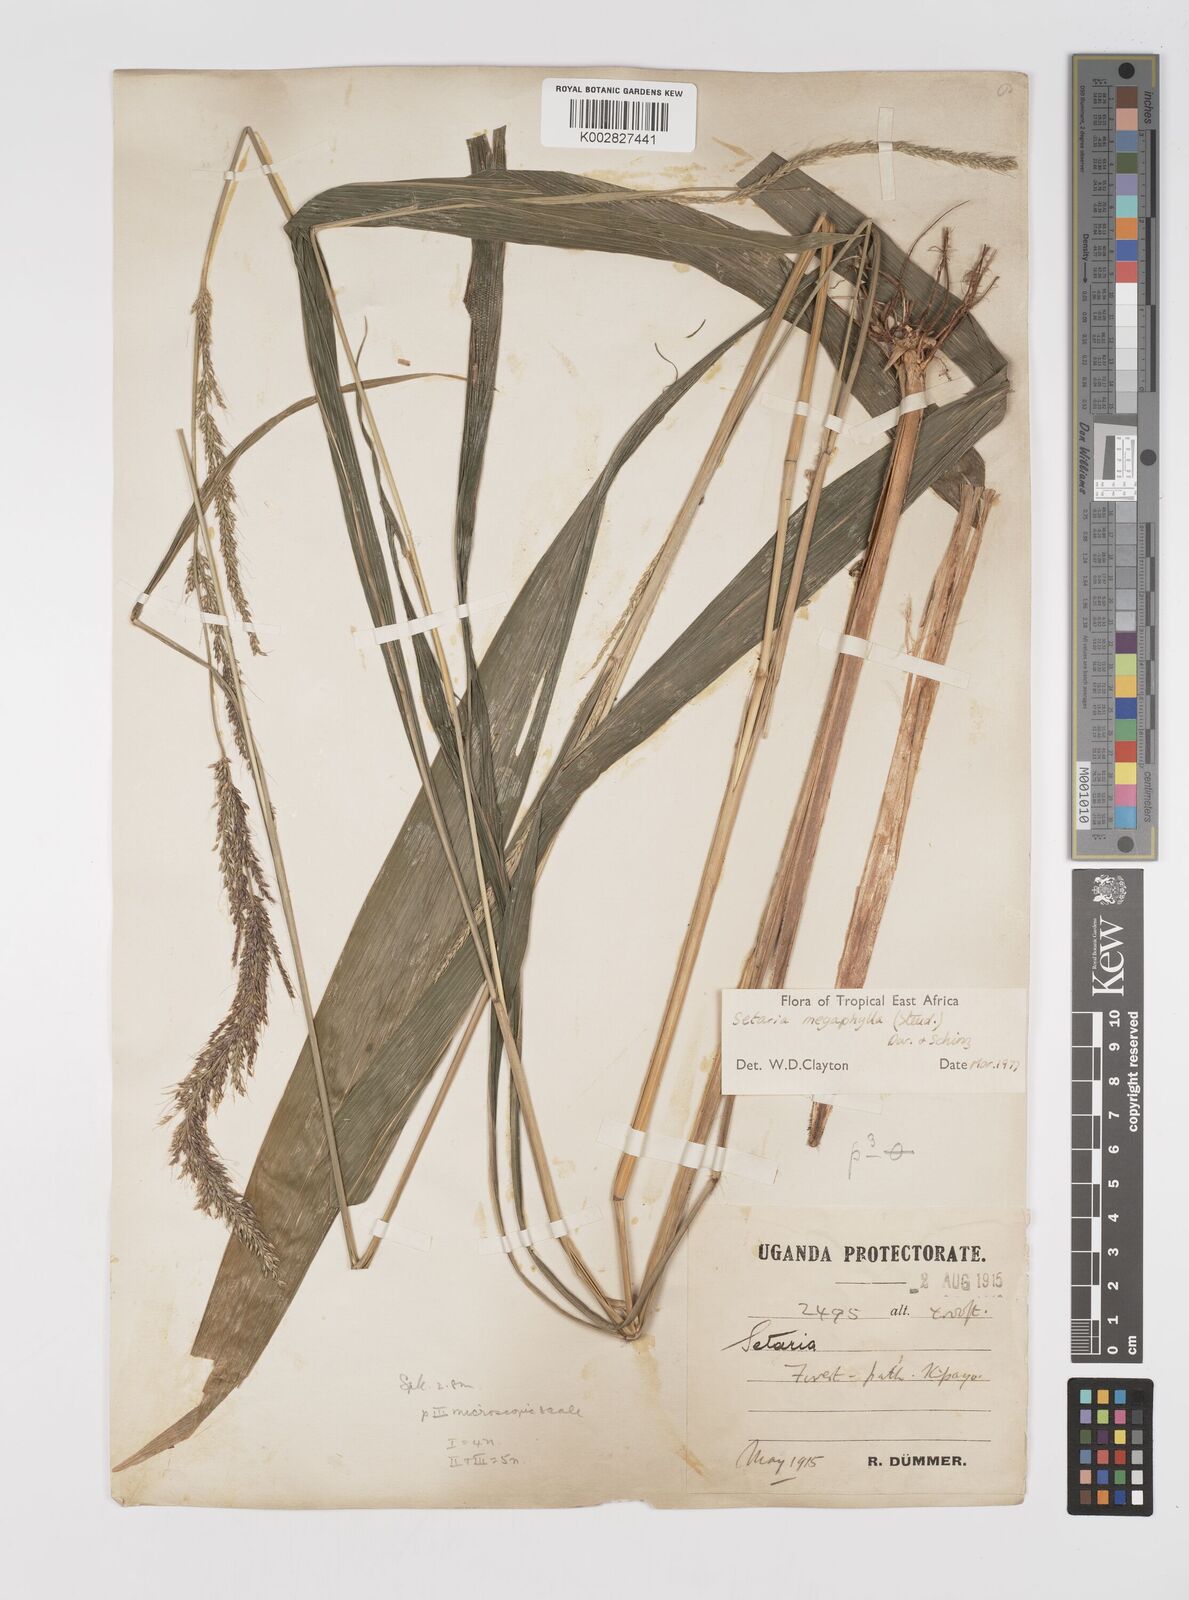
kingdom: Plantae
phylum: Tracheophyta
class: Liliopsida
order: Poales
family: Poaceae
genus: Setaria
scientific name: Setaria megaphylla
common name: Bigleaf bristlegrass
